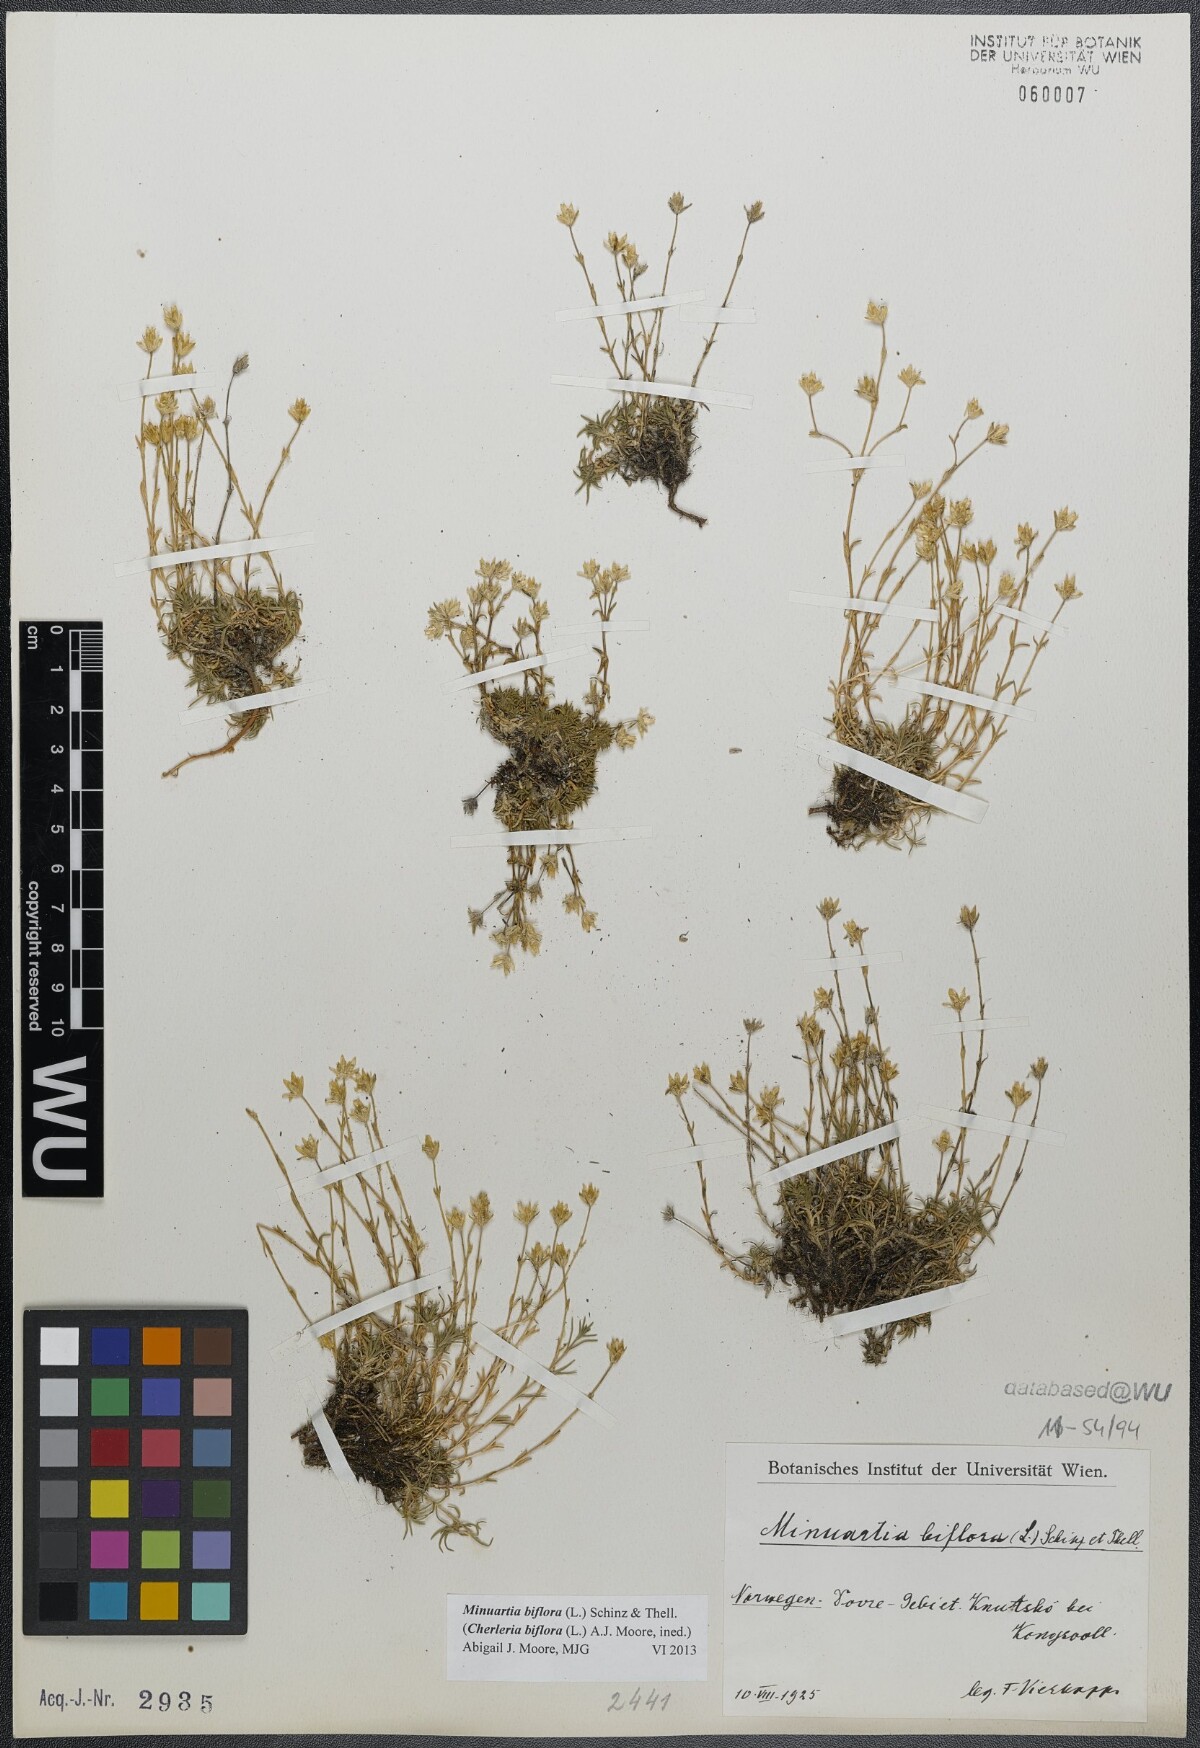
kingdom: Plantae
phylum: Tracheophyta
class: Magnoliopsida
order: Caryophyllales
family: Caryophyllaceae
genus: Cherleria
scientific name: Cherleria biflora
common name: Mountain sandwort
